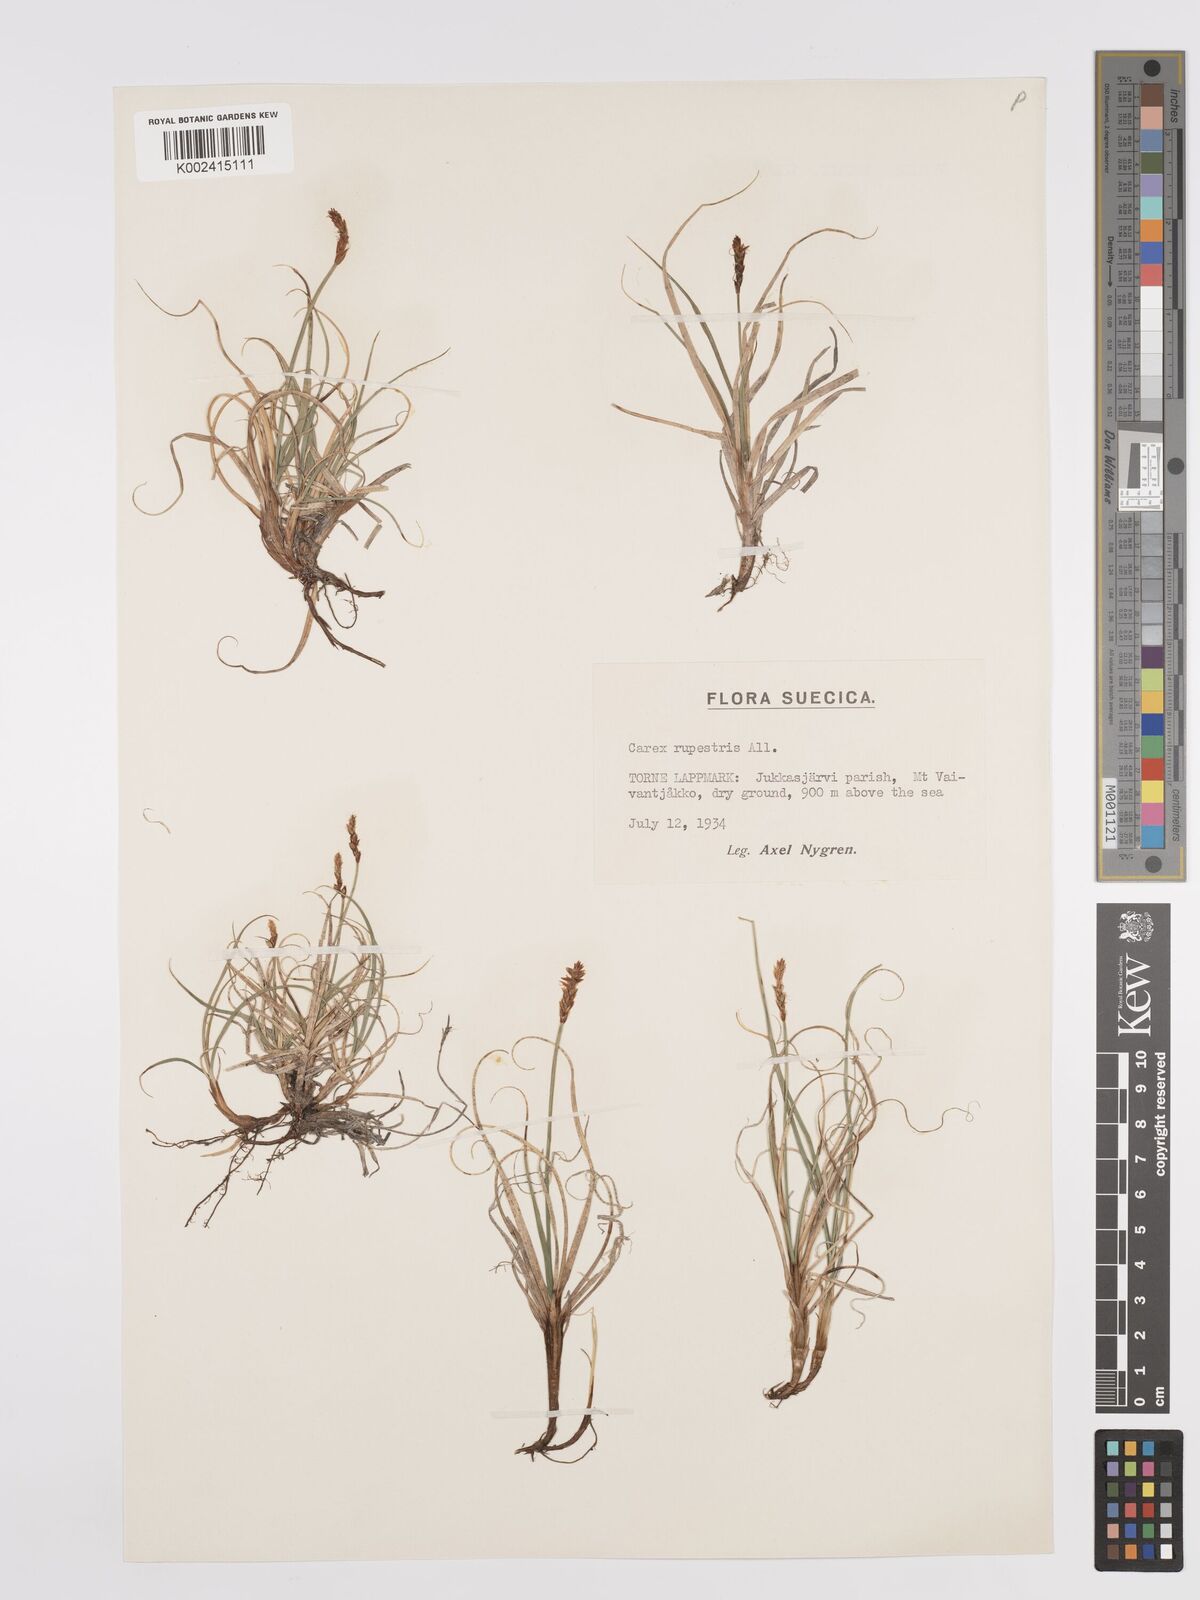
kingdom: Plantae
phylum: Tracheophyta
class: Liliopsida
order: Poales
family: Cyperaceae
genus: Carex
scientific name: Carex rupestris
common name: Rock sedge
